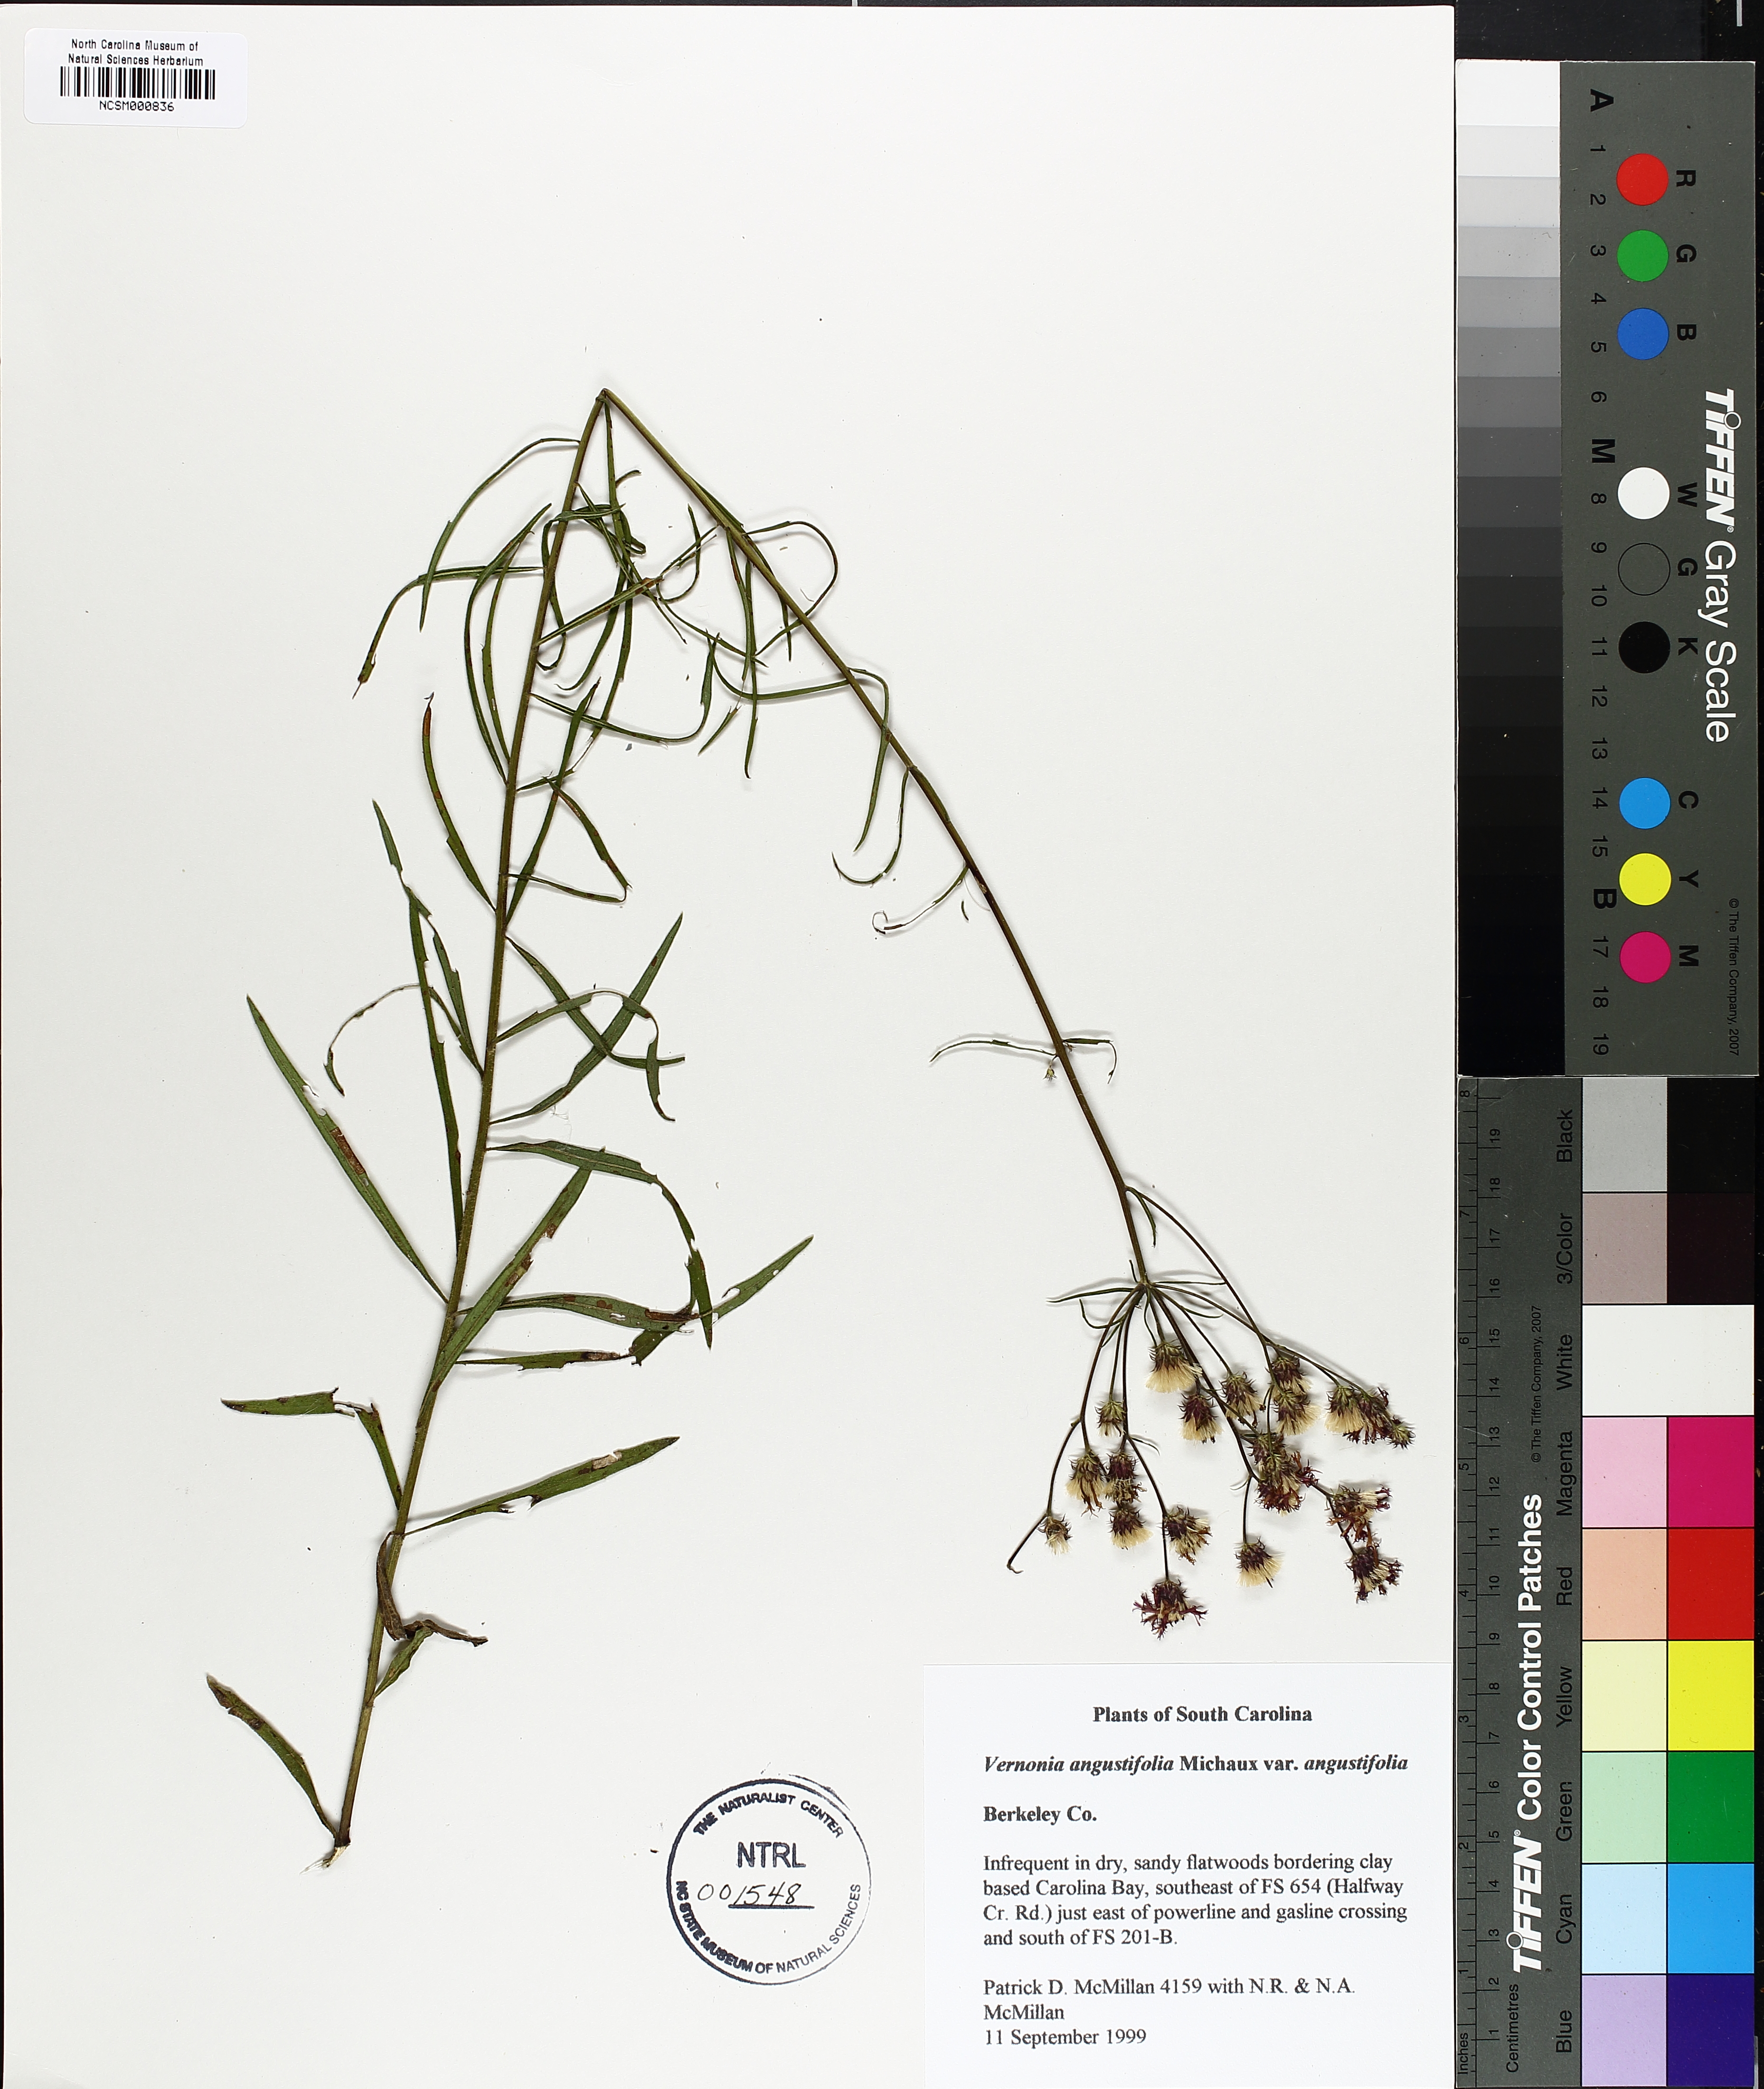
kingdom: Plantae
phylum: Tracheophyta
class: Magnoliopsida
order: Asterales
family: Asteraceae
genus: Vernonia
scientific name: Vernonia angustifolia
